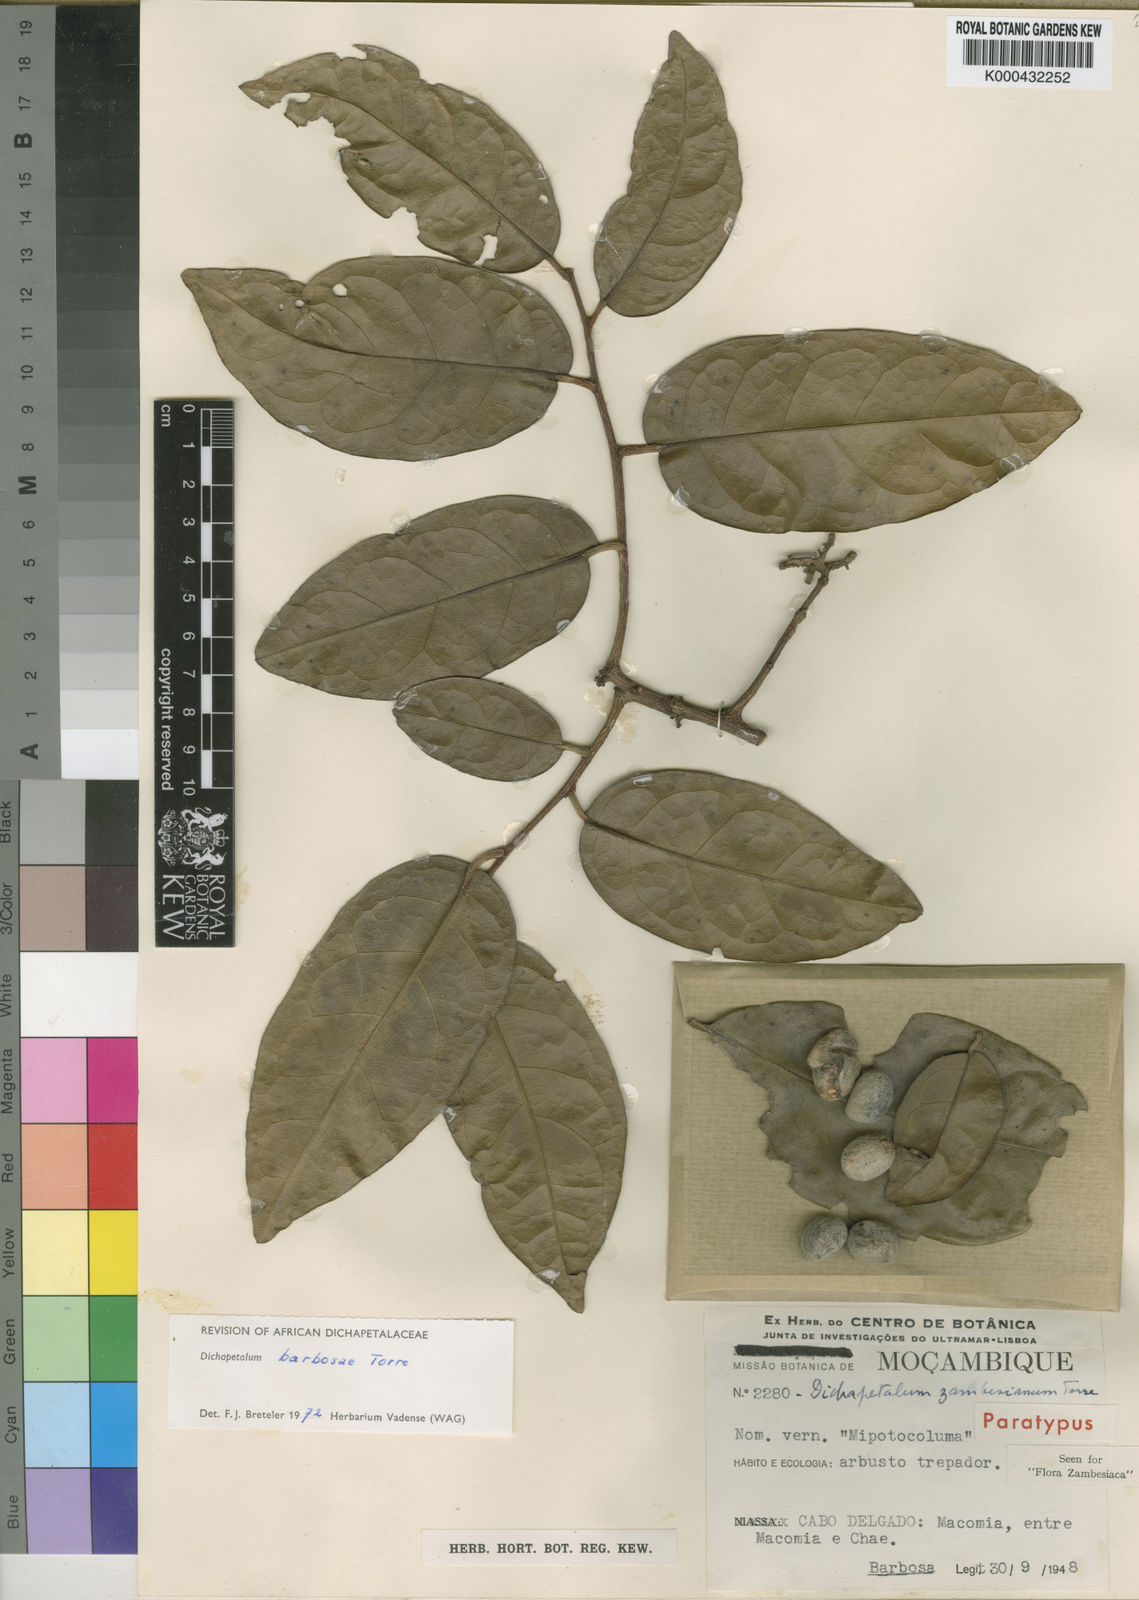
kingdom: Plantae
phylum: Tracheophyta
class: Magnoliopsida
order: Malpighiales
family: Dichapetalaceae
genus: Dichapetalum
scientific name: Dichapetalum barbosae
